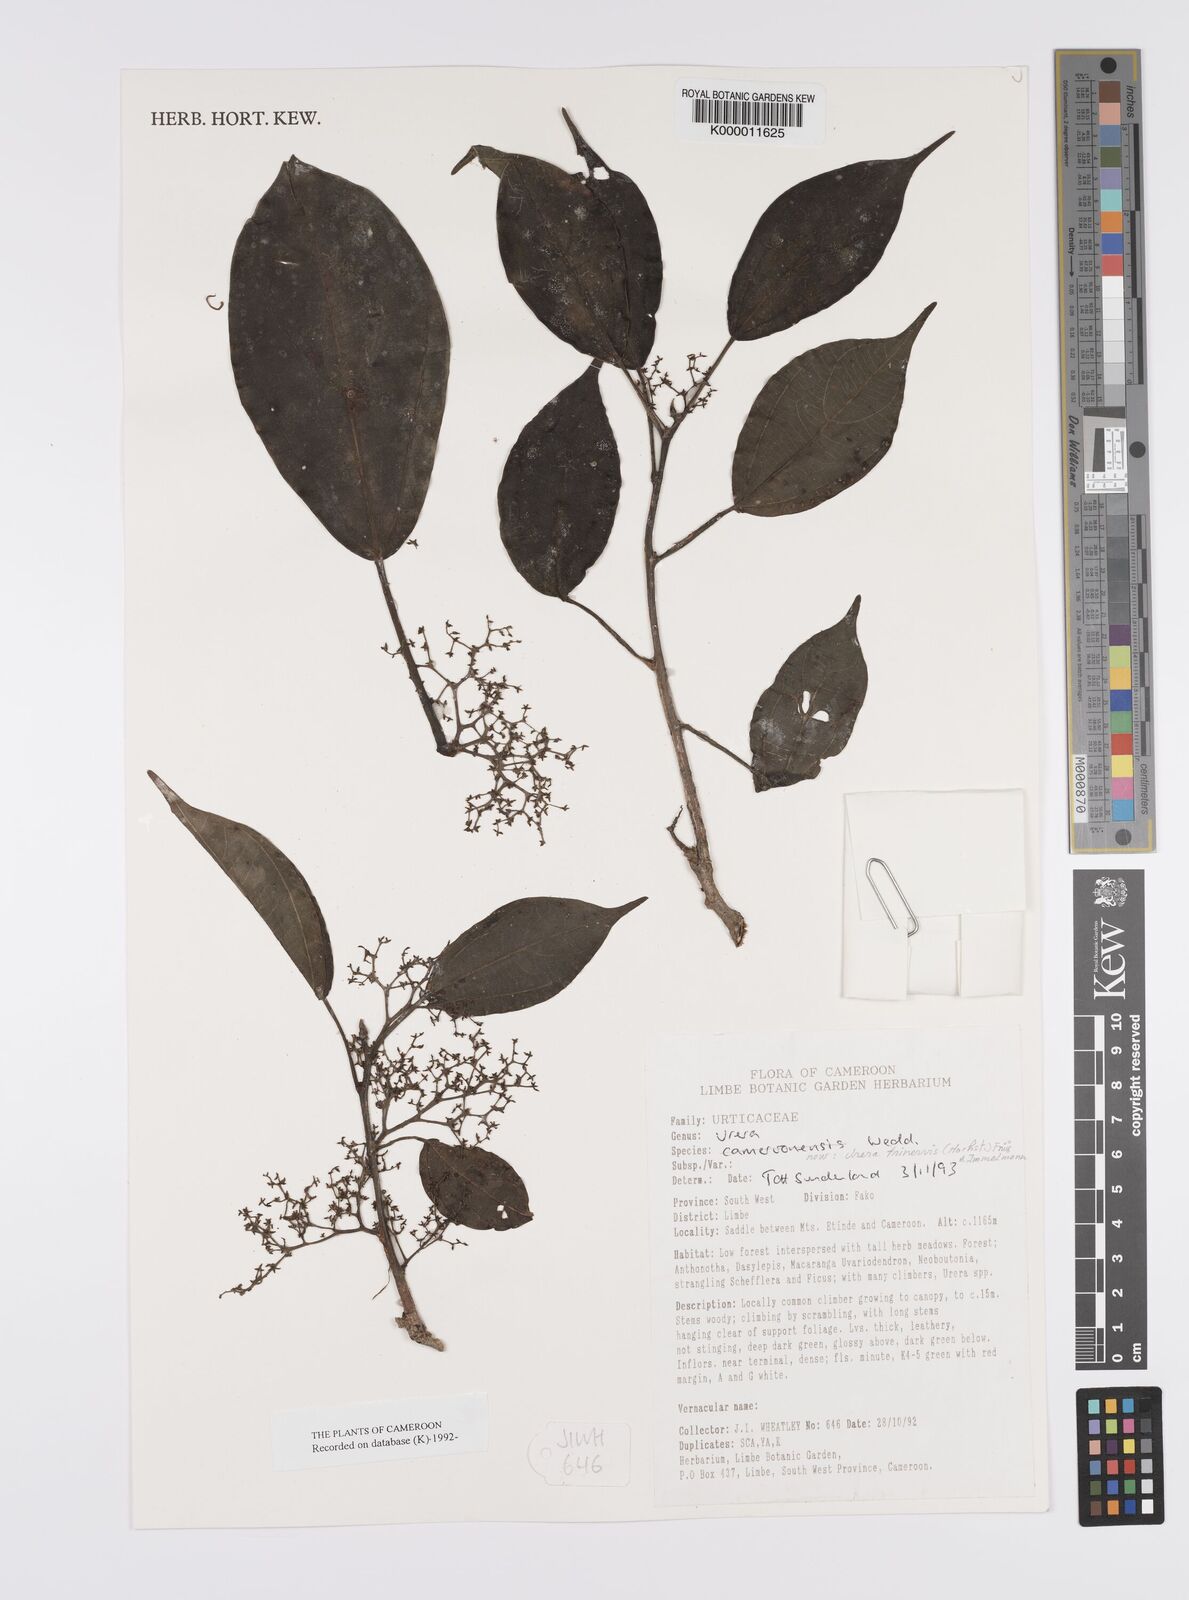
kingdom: Plantae
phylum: Tracheophyta
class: Magnoliopsida
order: Rosales
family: Urticaceae
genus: Scepocarpus
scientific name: Scepocarpus trinervis
